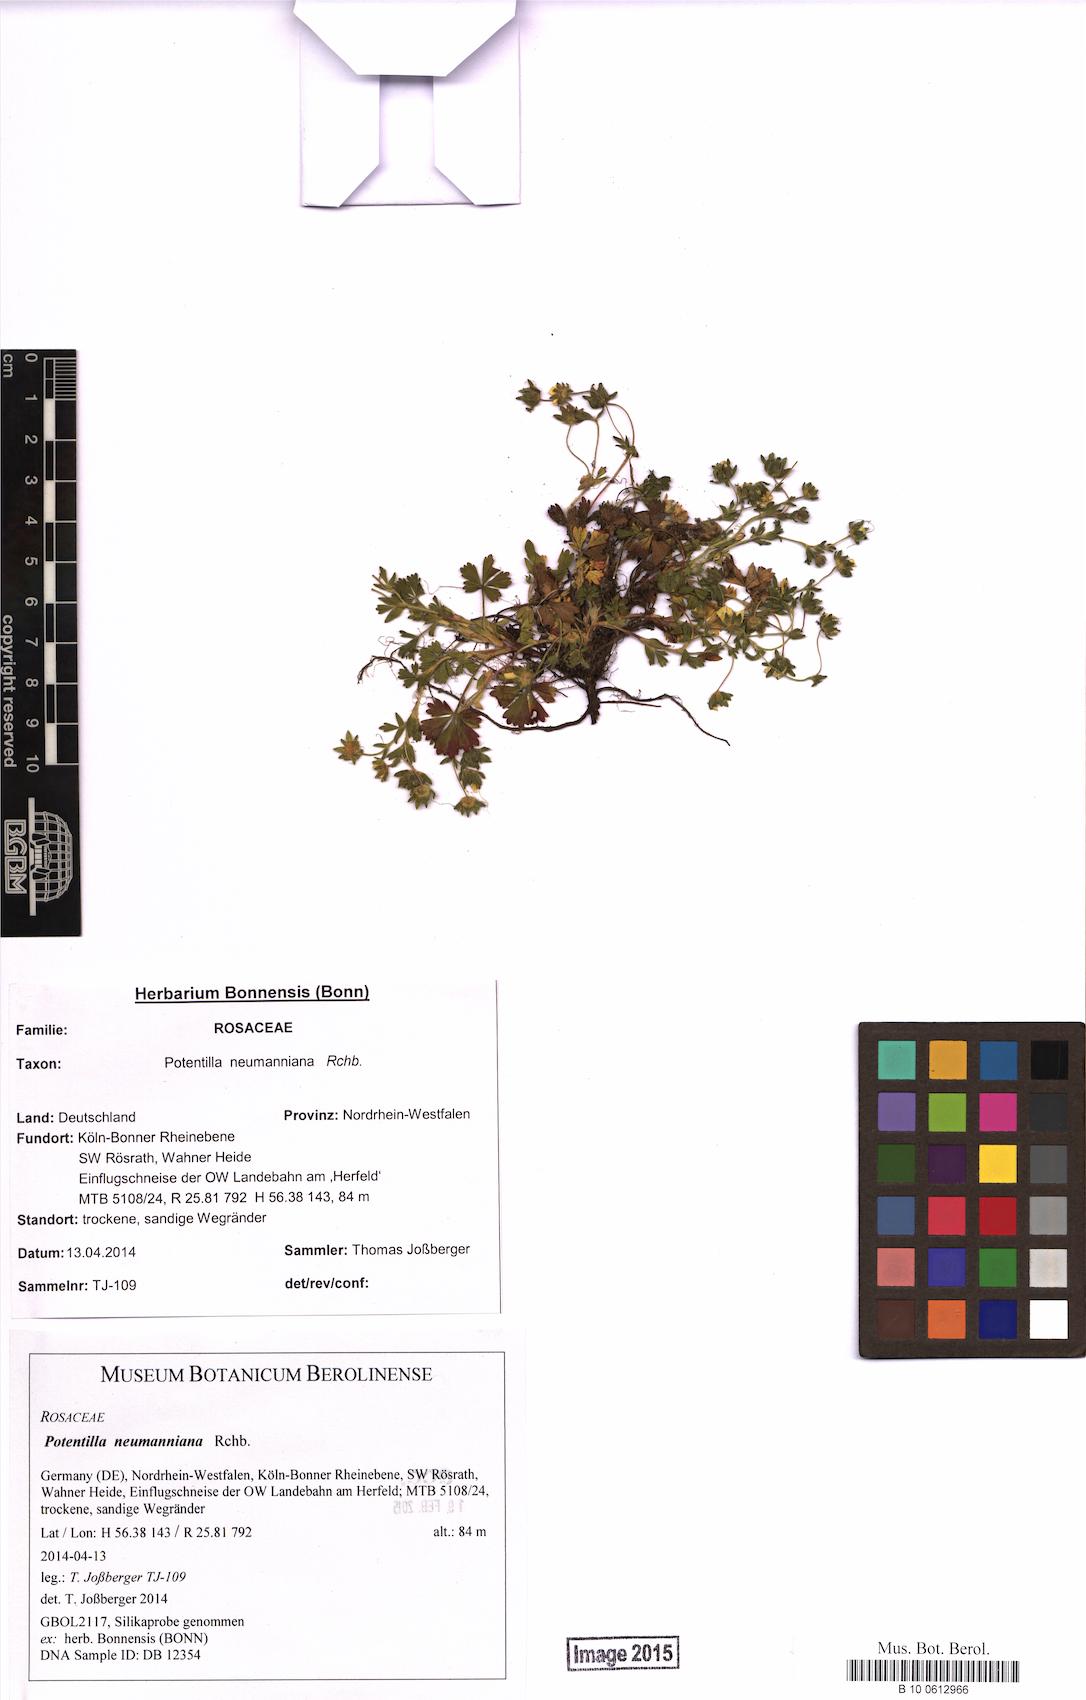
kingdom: Plantae
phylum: Tracheophyta
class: Magnoliopsida
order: Rosales
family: Rosaceae
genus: Potentilla
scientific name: Potentilla verna
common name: Spring cinquefoil
